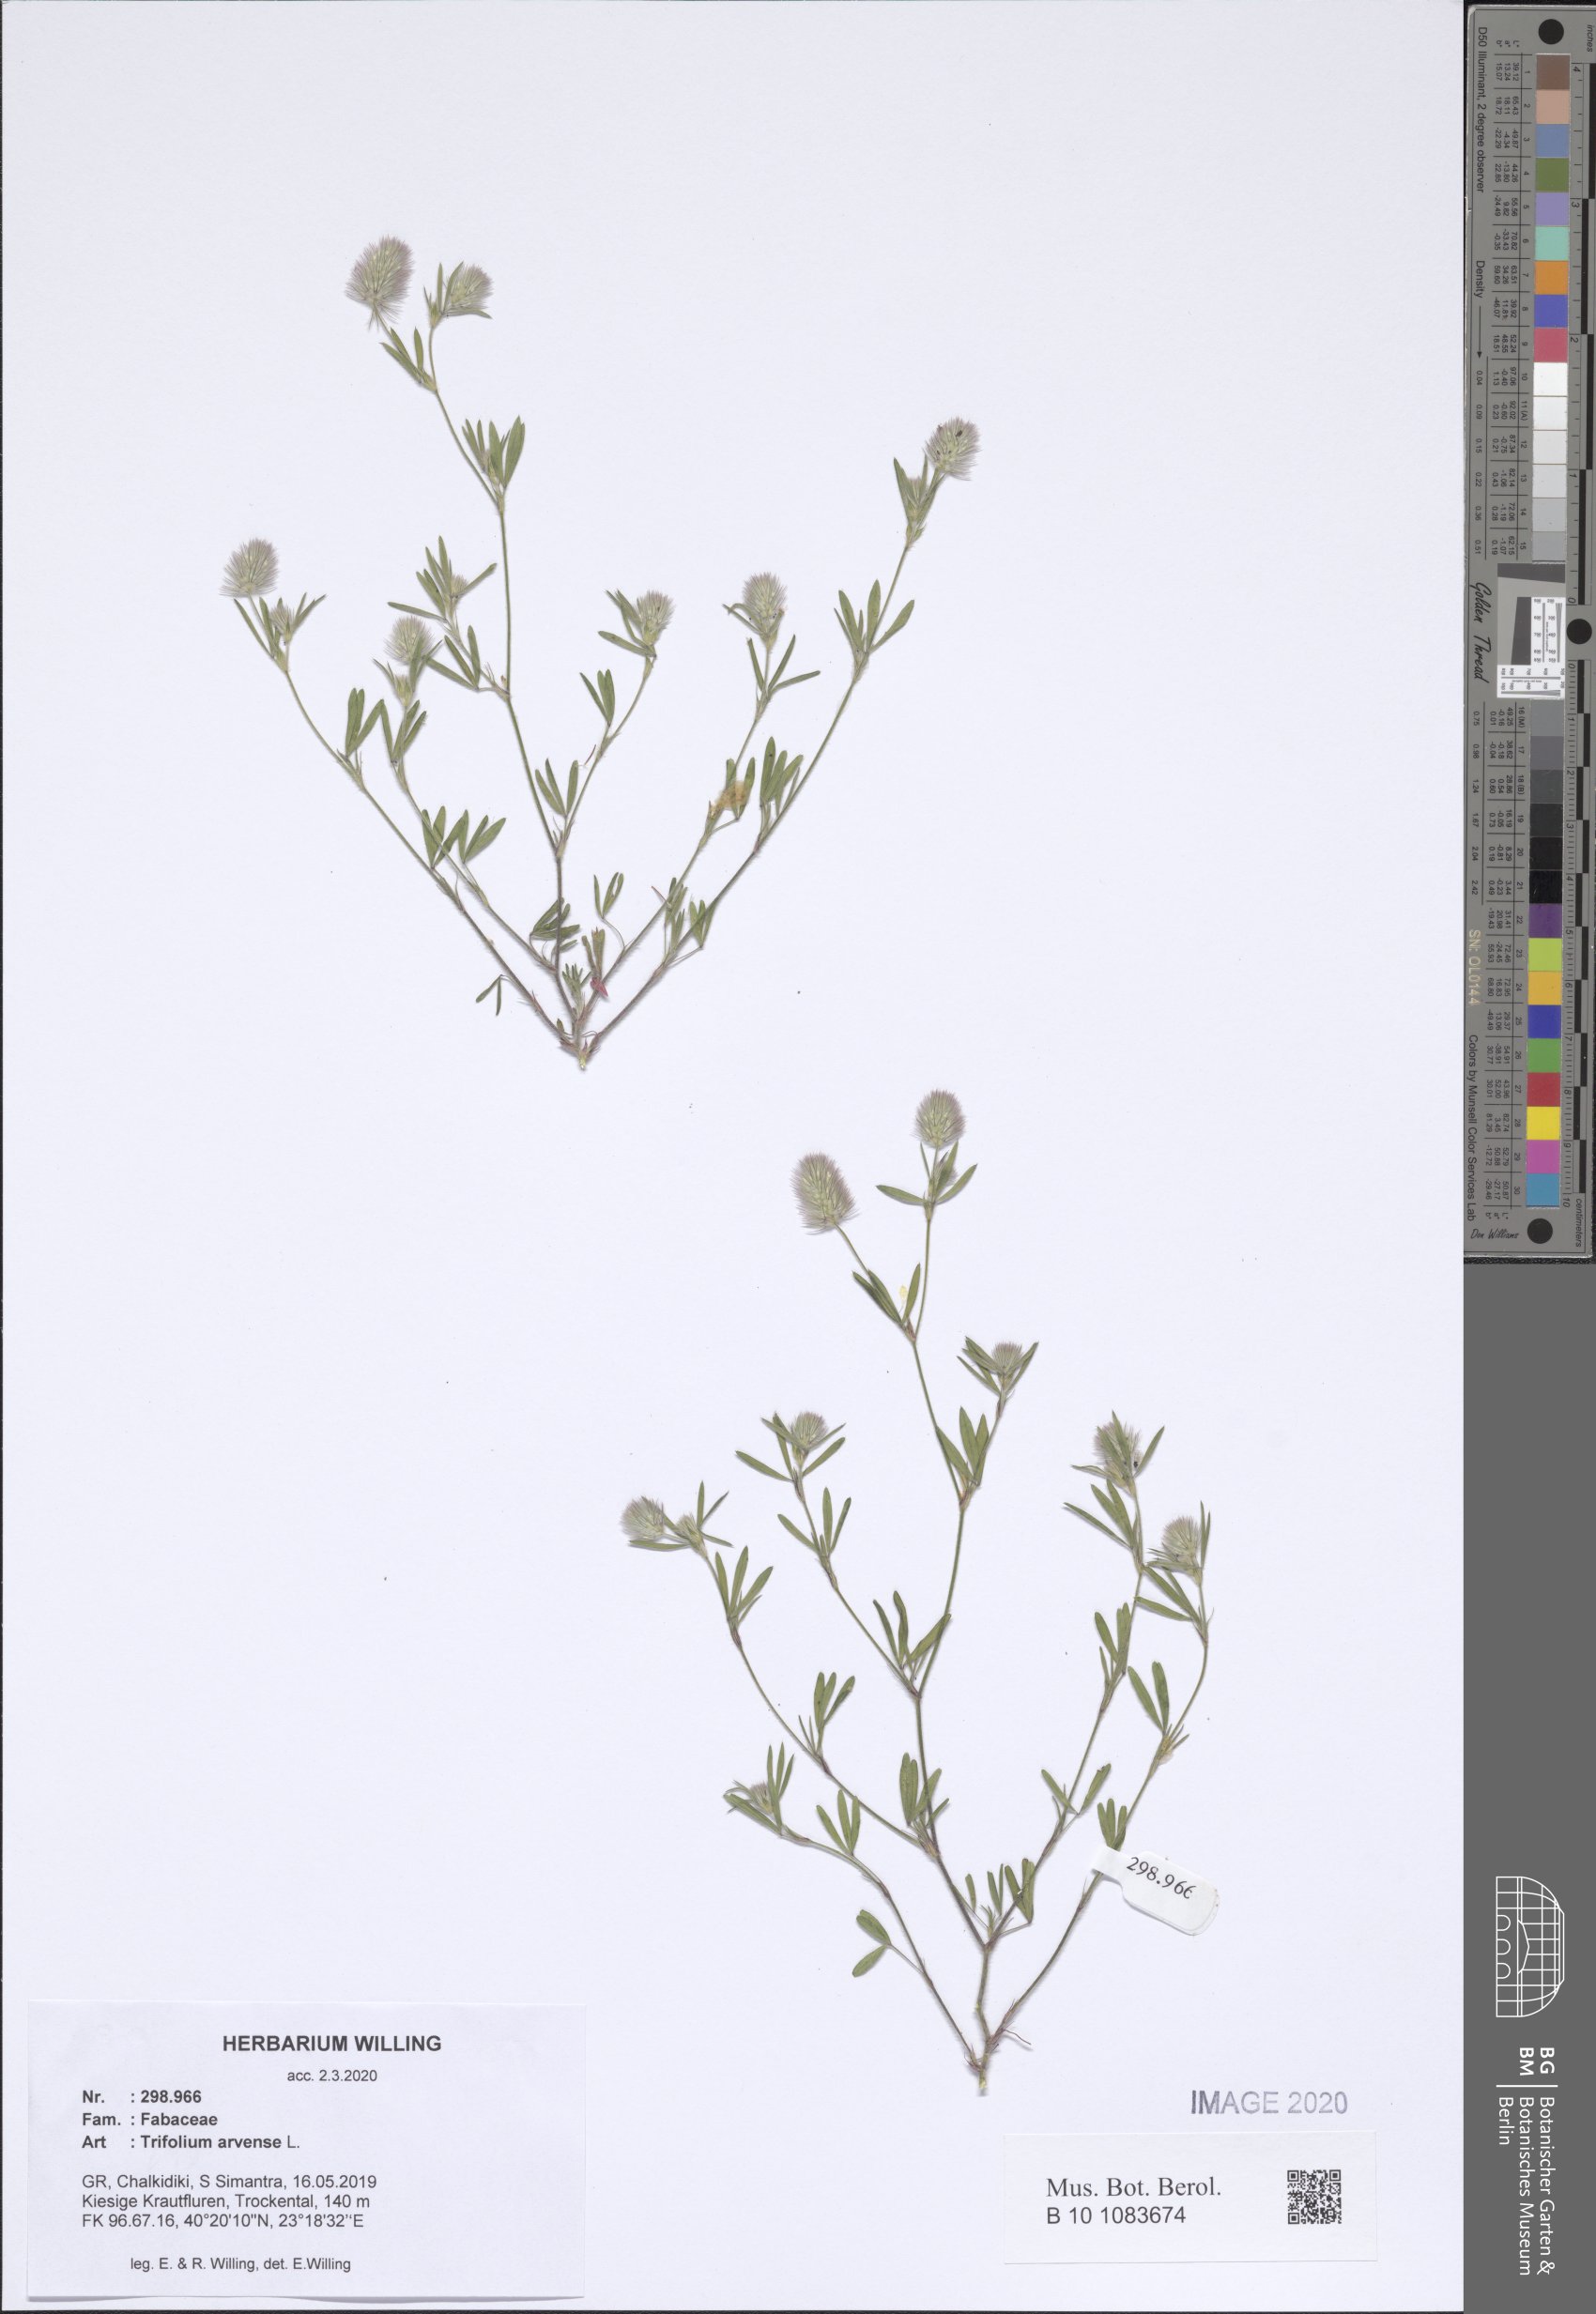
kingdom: Plantae
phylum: Tracheophyta
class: Magnoliopsida
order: Fabales
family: Fabaceae
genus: Trifolium
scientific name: Trifolium arvense
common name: Hare's-foot clover
